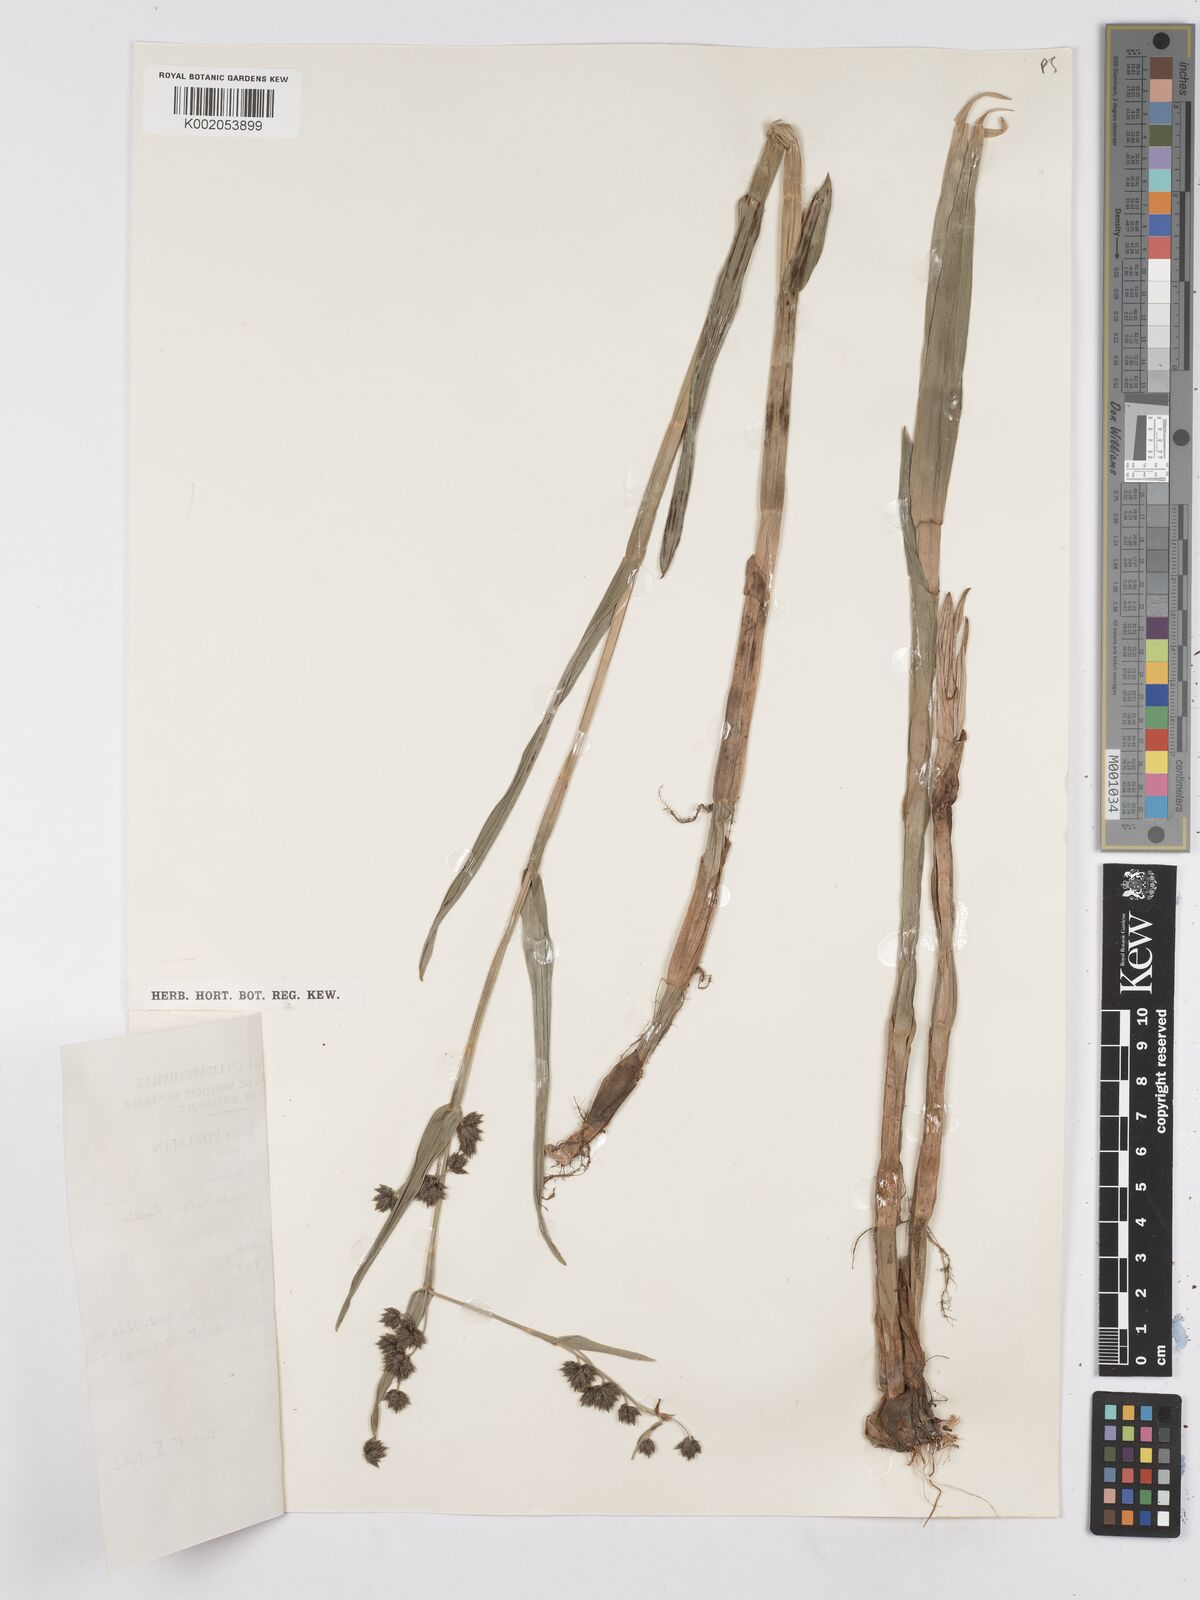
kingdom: Plantae
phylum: Tracheophyta
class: Liliopsida
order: Poales
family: Cyperaceae
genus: Fuirena
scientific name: Fuirena umbellata
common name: Yefen
